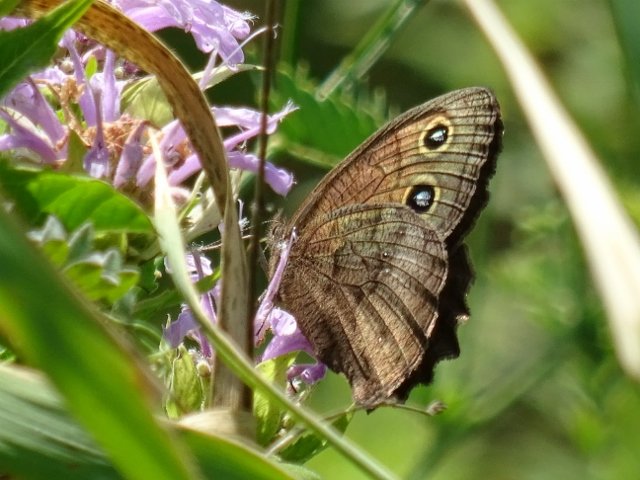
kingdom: Animalia
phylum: Arthropoda
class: Insecta
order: Lepidoptera
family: Nymphalidae
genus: Cercyonis
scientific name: Cercyonis pegala
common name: Common Wood-Nymph
